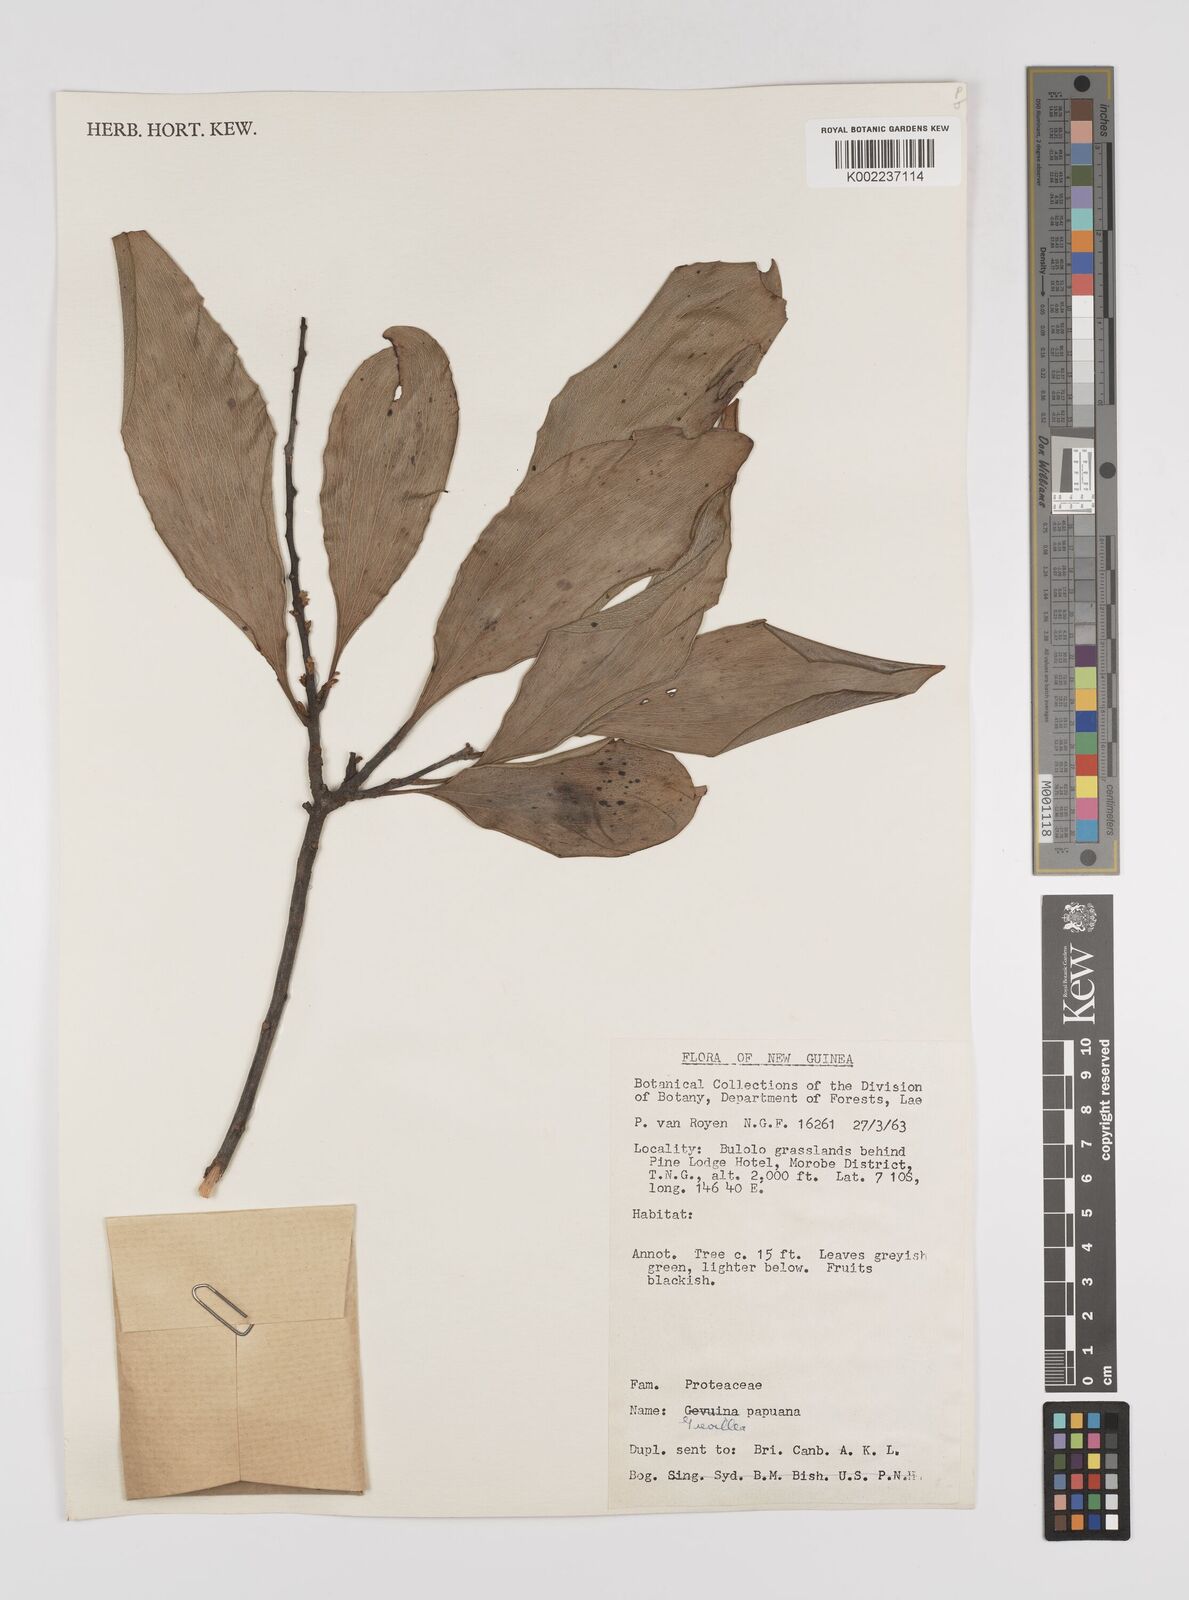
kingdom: Plantae
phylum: Tracheophyta
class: Magnoliopsida
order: Proteales
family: Proteaceae
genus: Grevillea
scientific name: Grevillea papuana
